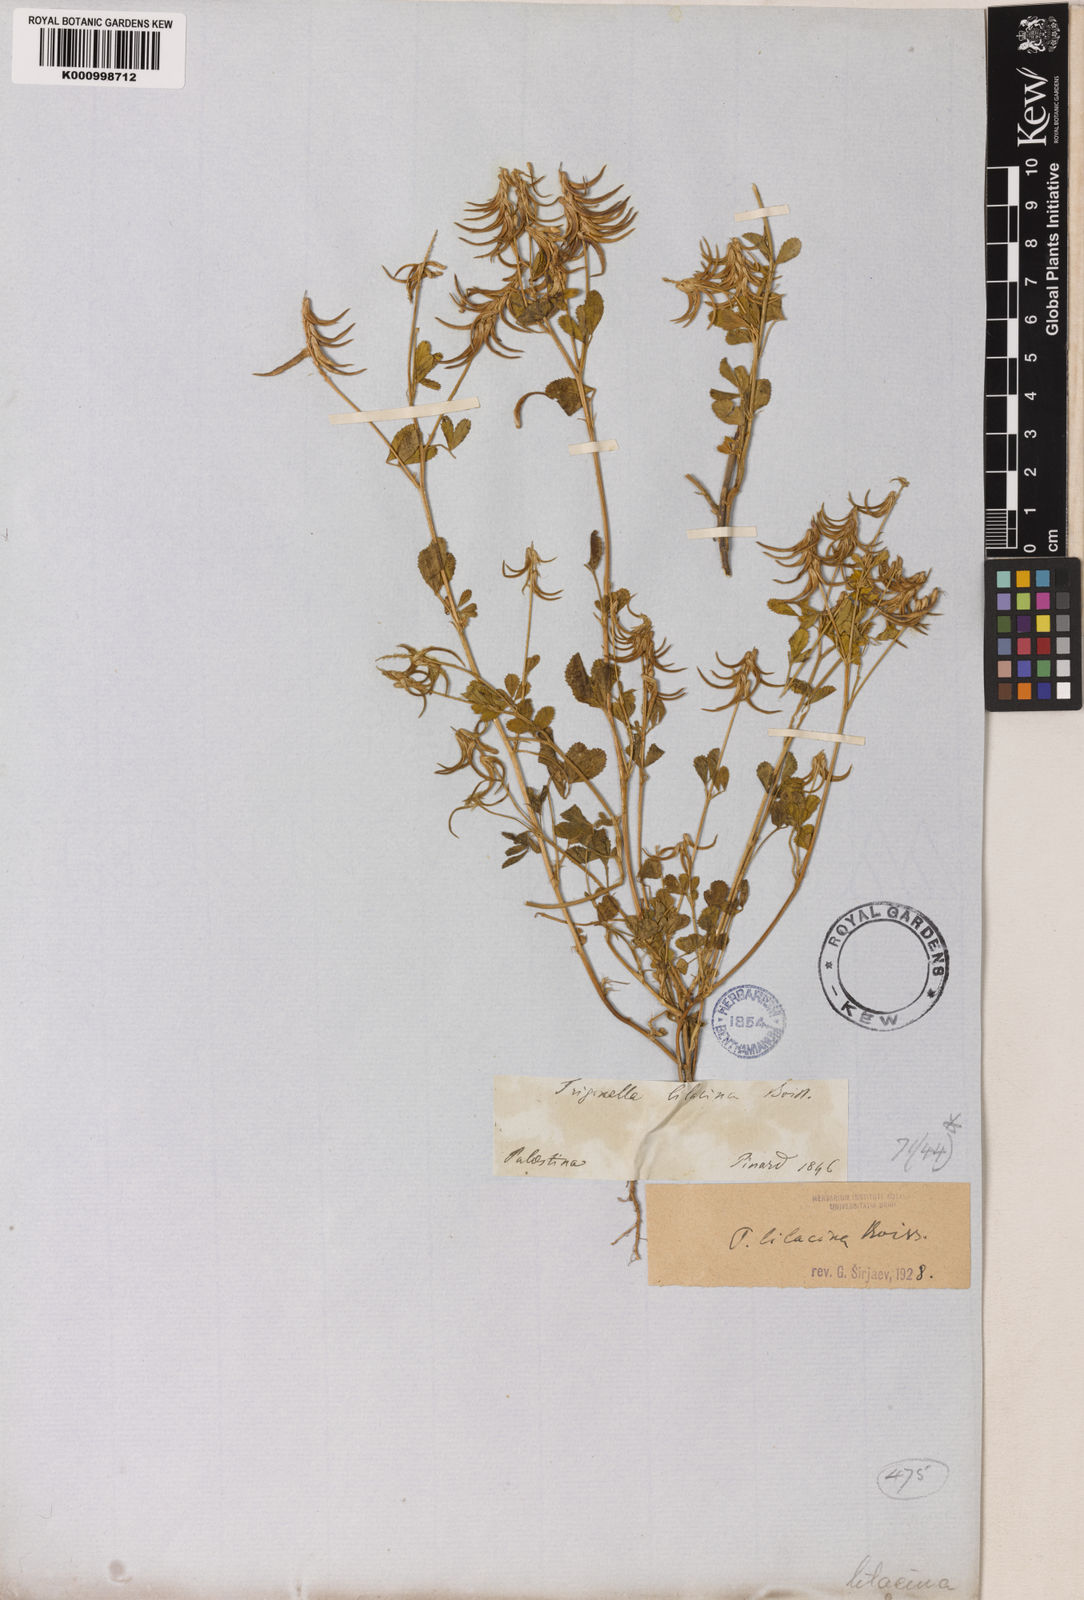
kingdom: Plantae
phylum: Tracheophyta
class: Magnoliopsida
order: Fabales
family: Fabaceae
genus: Trigonella
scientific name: Trigonella lilacina
